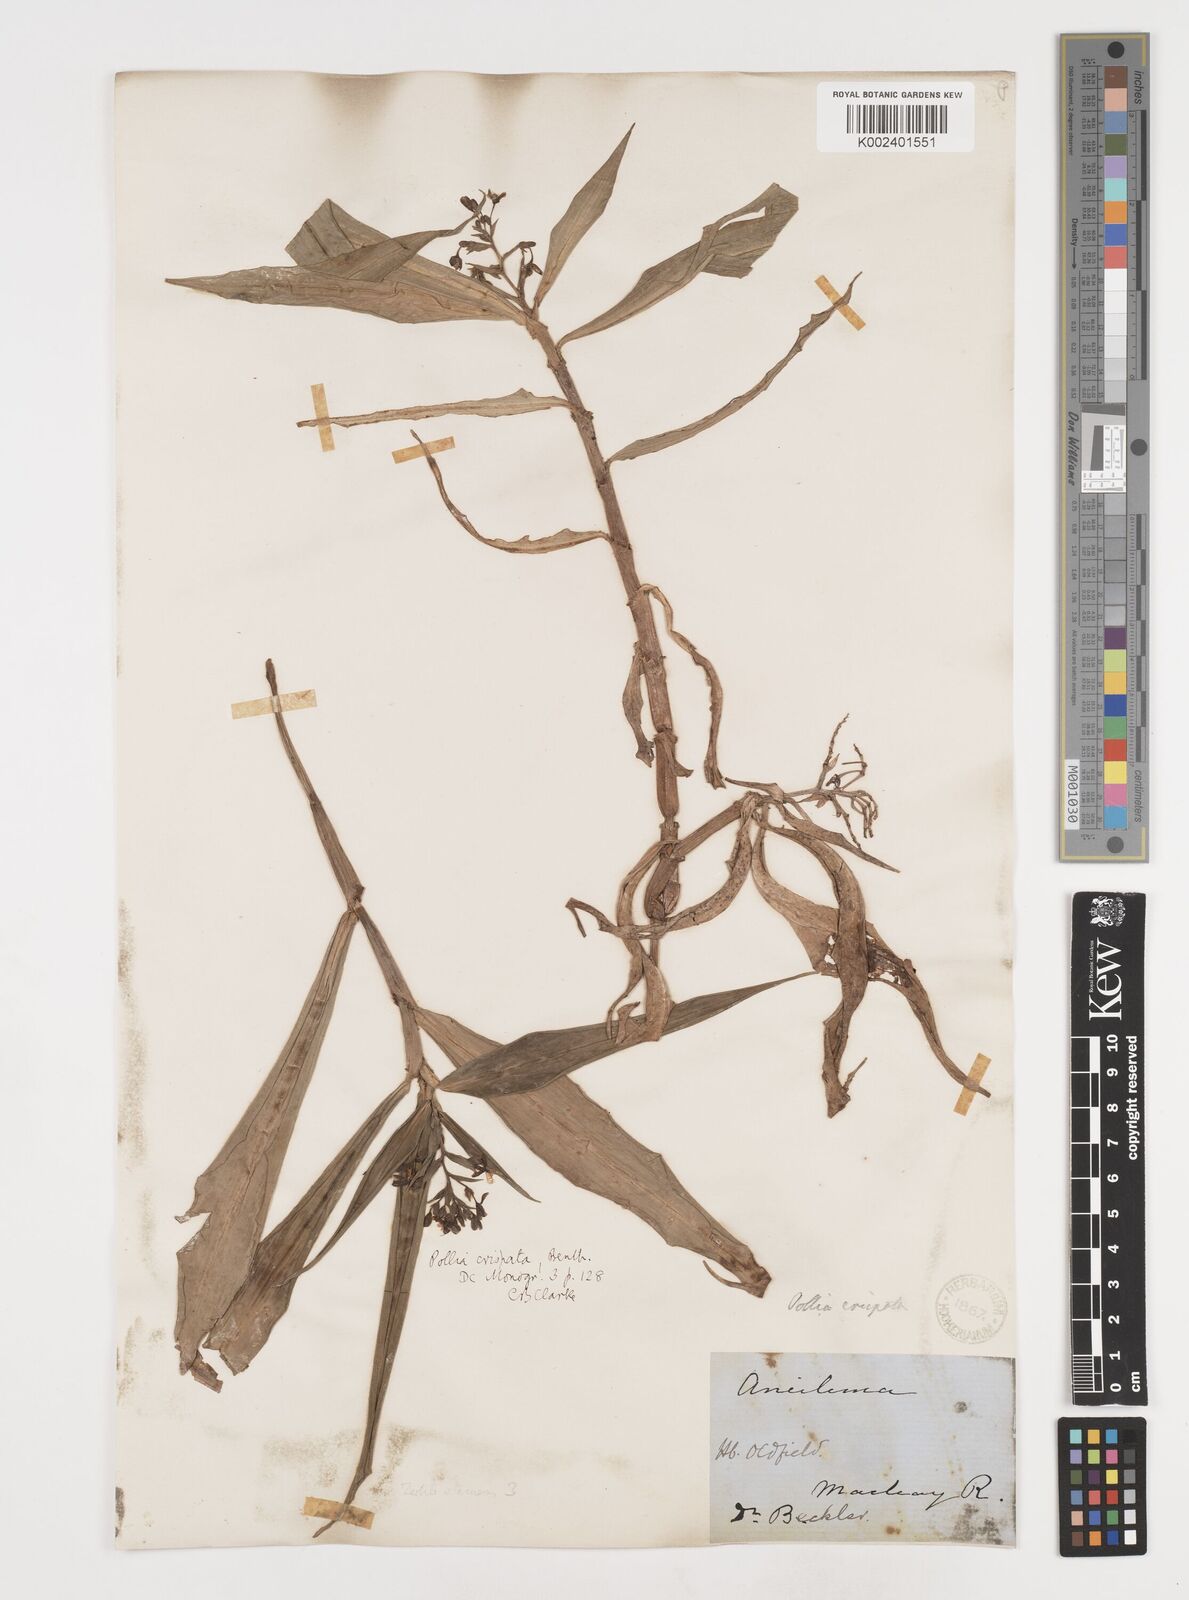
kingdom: Plantae
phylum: Tracheophyta
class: Liliopsida
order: Commelinales
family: Commelinaceae
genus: Pollia
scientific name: Pollia crispata
